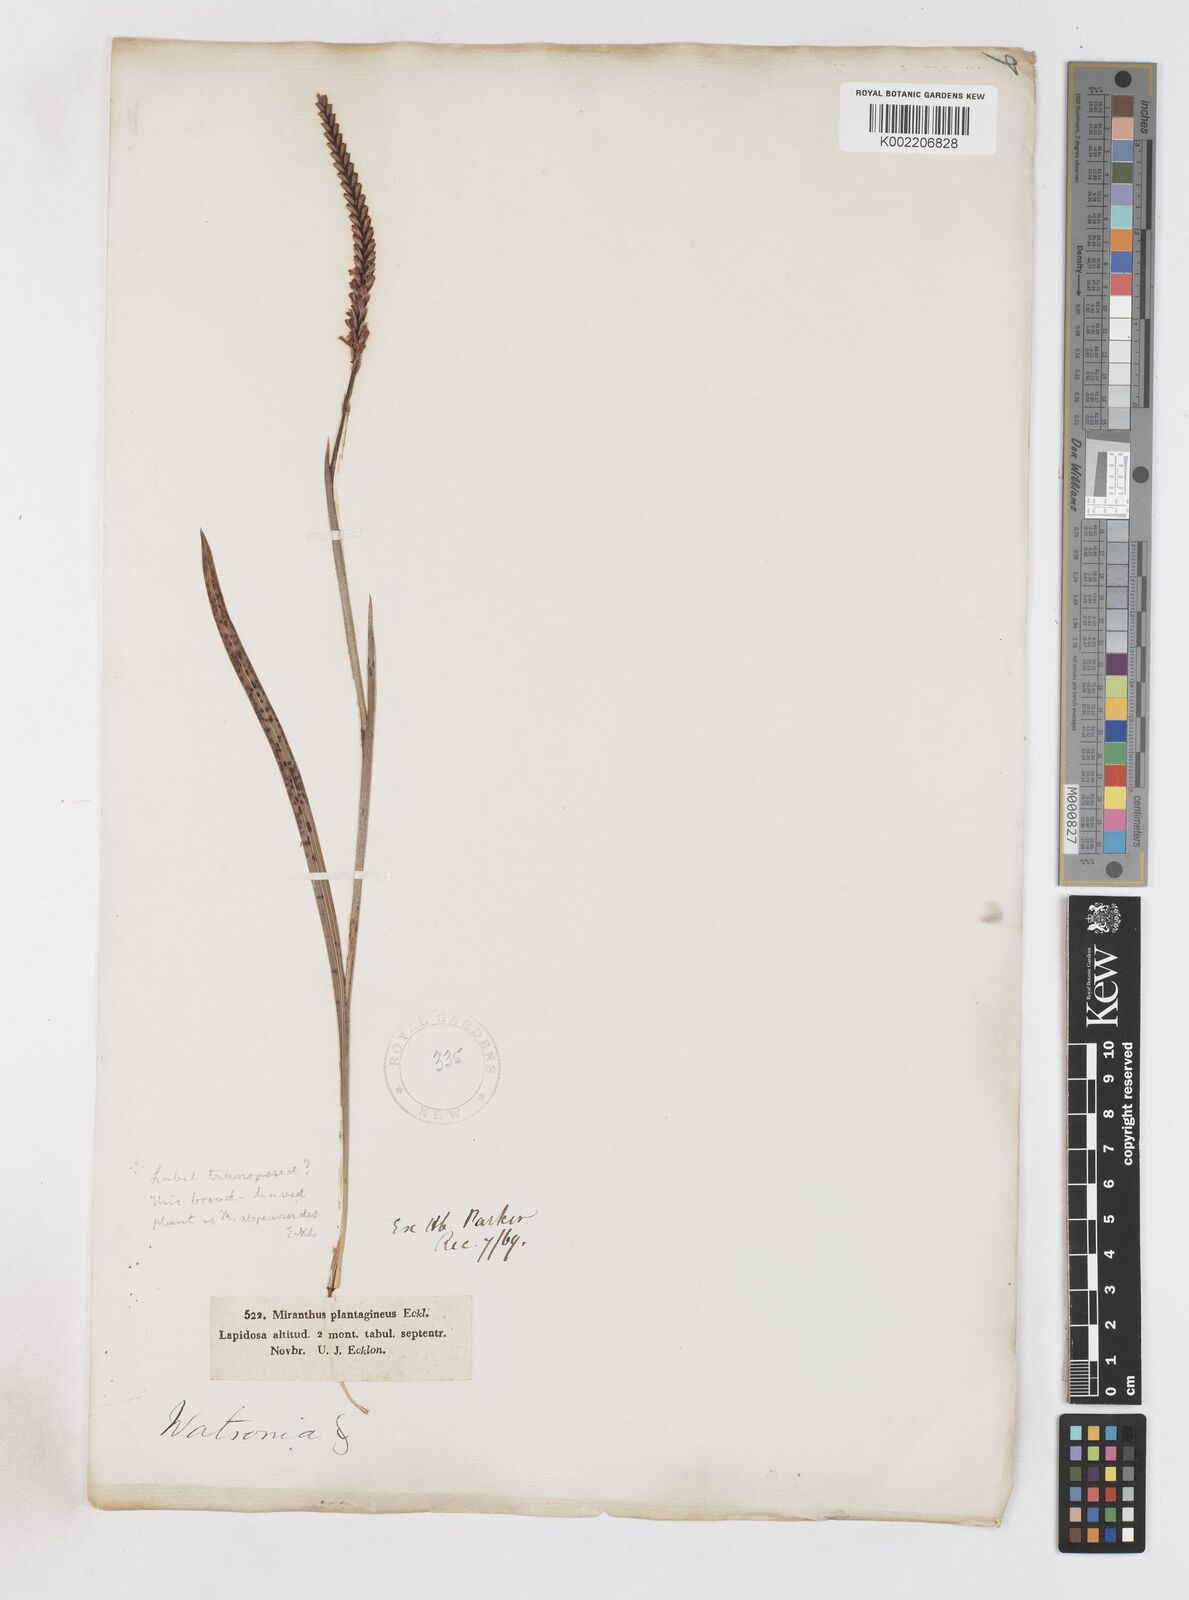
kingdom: Plantae
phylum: Tracheophyta
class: Liliopsida
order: Asparagales
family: Iridaceae
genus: Micranthus
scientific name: Micranthus alopecuroides
